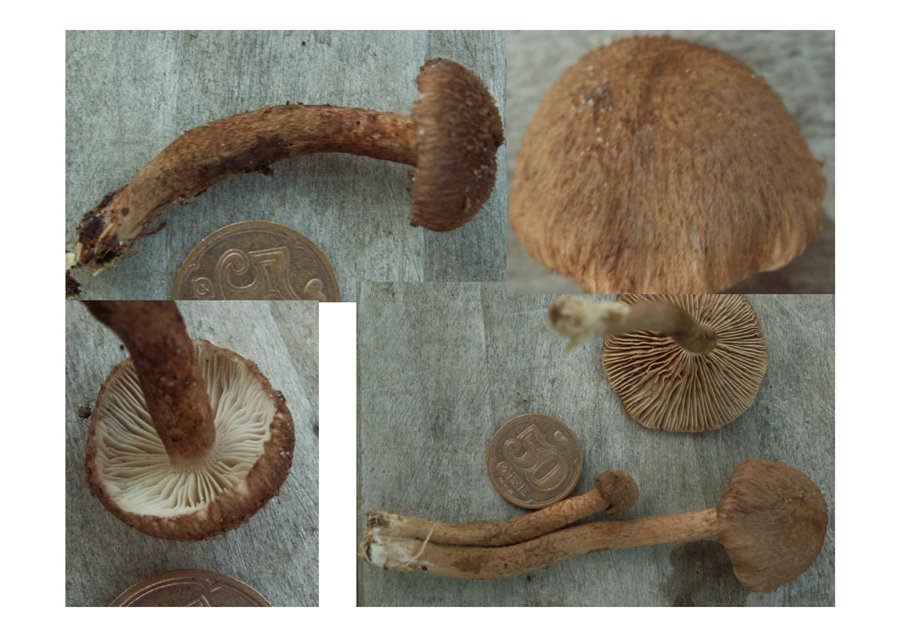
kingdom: Fungi
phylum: Basidiomycota
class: Agaricomycetes
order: Agaricales
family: Inocybaceae
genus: Inocybe
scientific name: Inocybe stellatospora
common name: spidsskællet trævlhat
